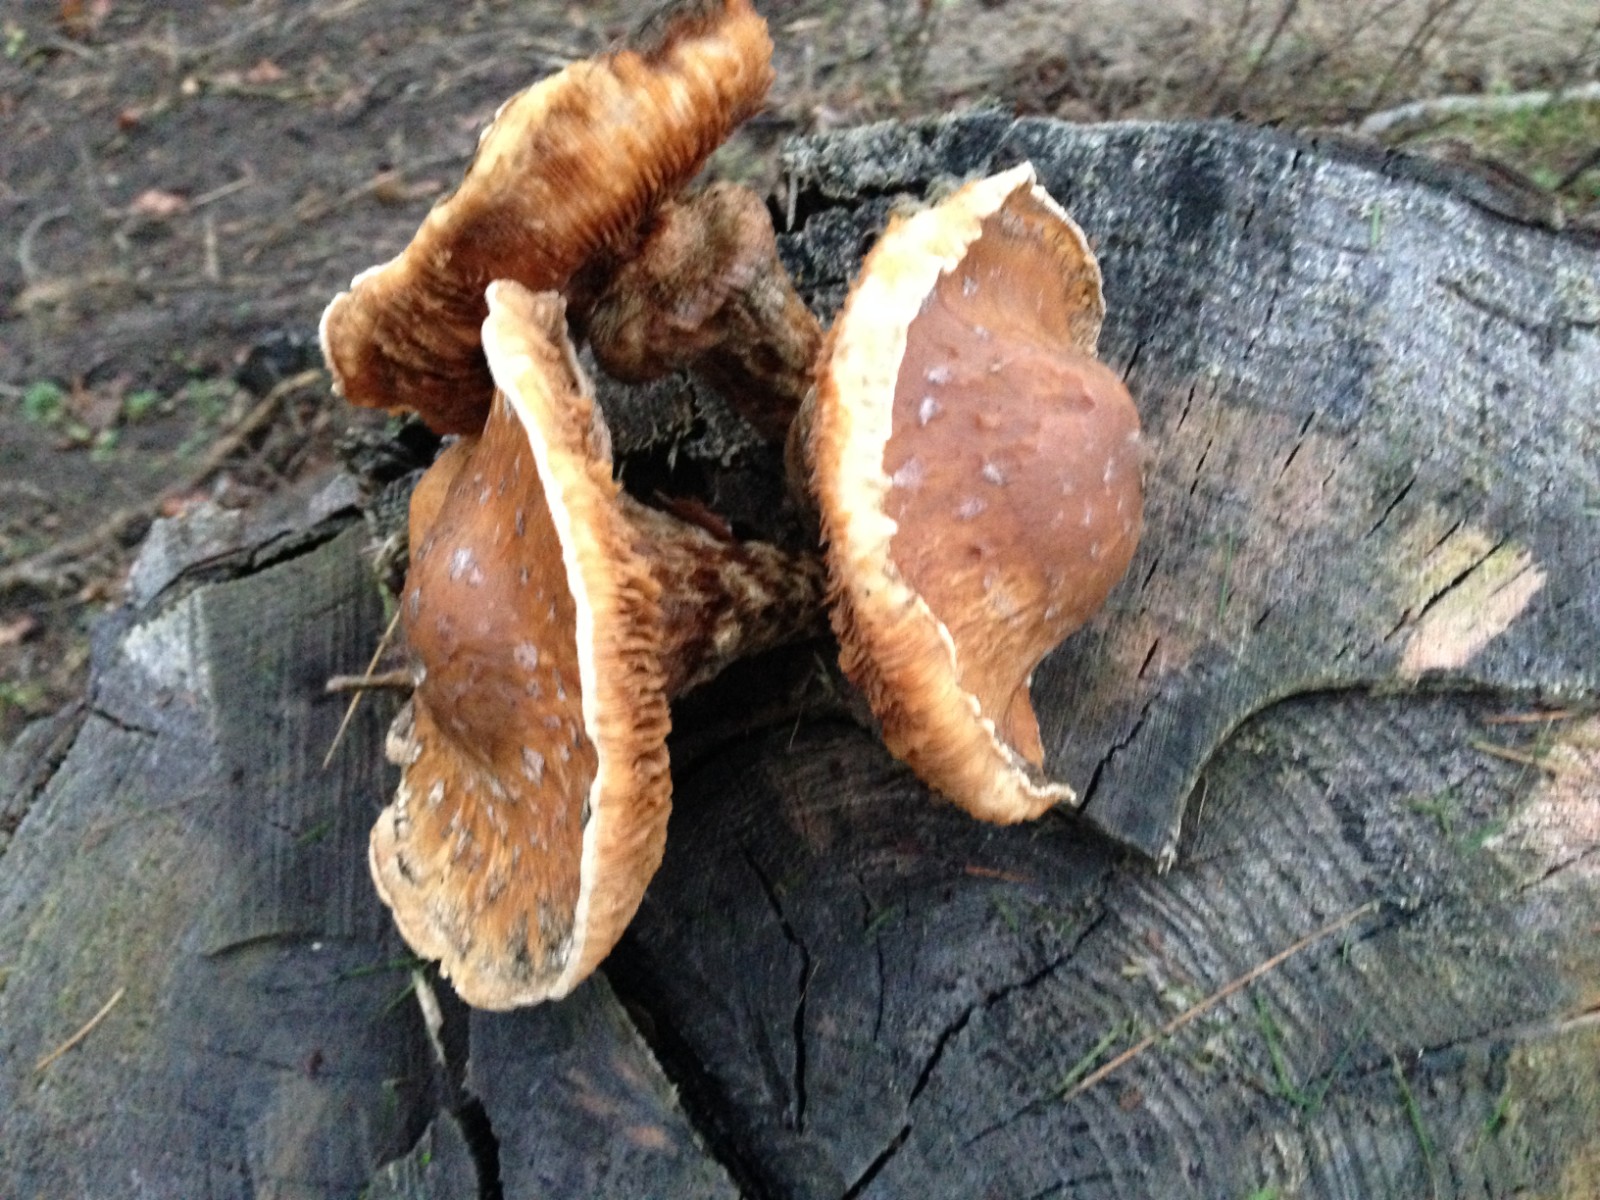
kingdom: Fungi
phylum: Basidiomycota
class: Agaricomycetes
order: Agaricales
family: Strophariaceae
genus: Pholiota
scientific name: Pholiota populnea
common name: poppel-kæmpeskælhat
